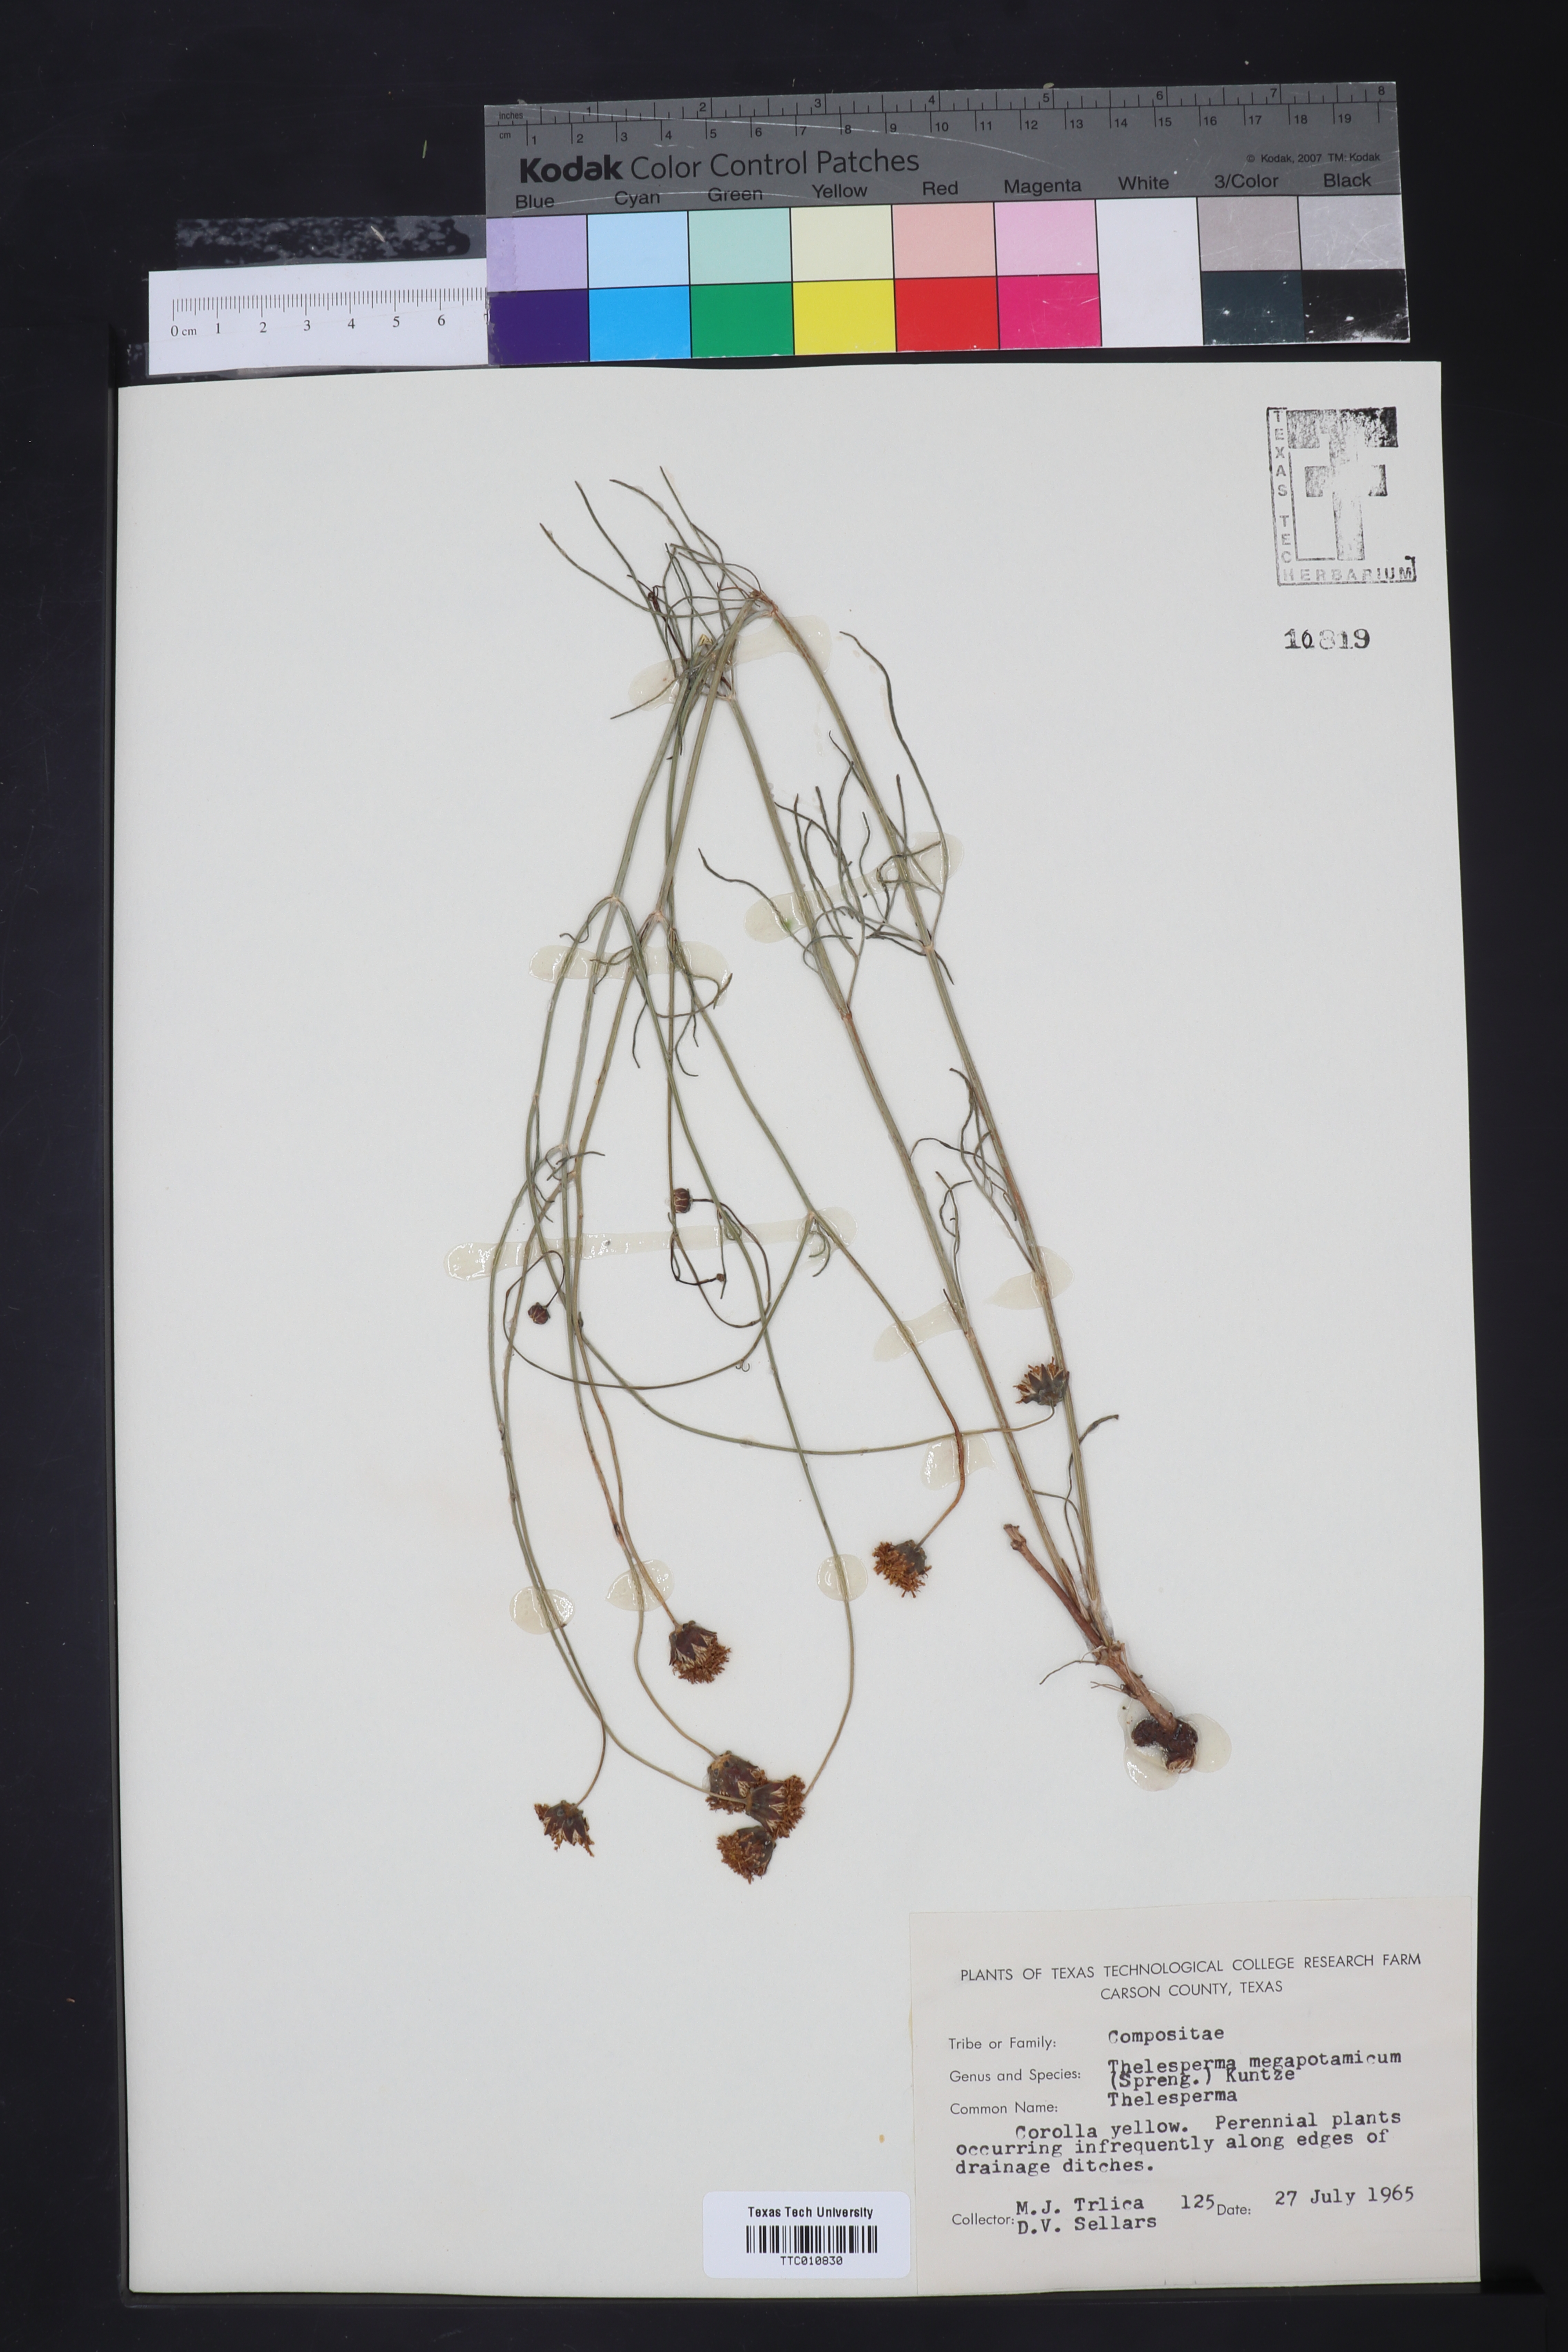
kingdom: Plantae
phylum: Tracheophyta
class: Magnoliopsida
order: Asterales
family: Asteraceae
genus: Thelesperma
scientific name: Thelesperma megapotamicum
